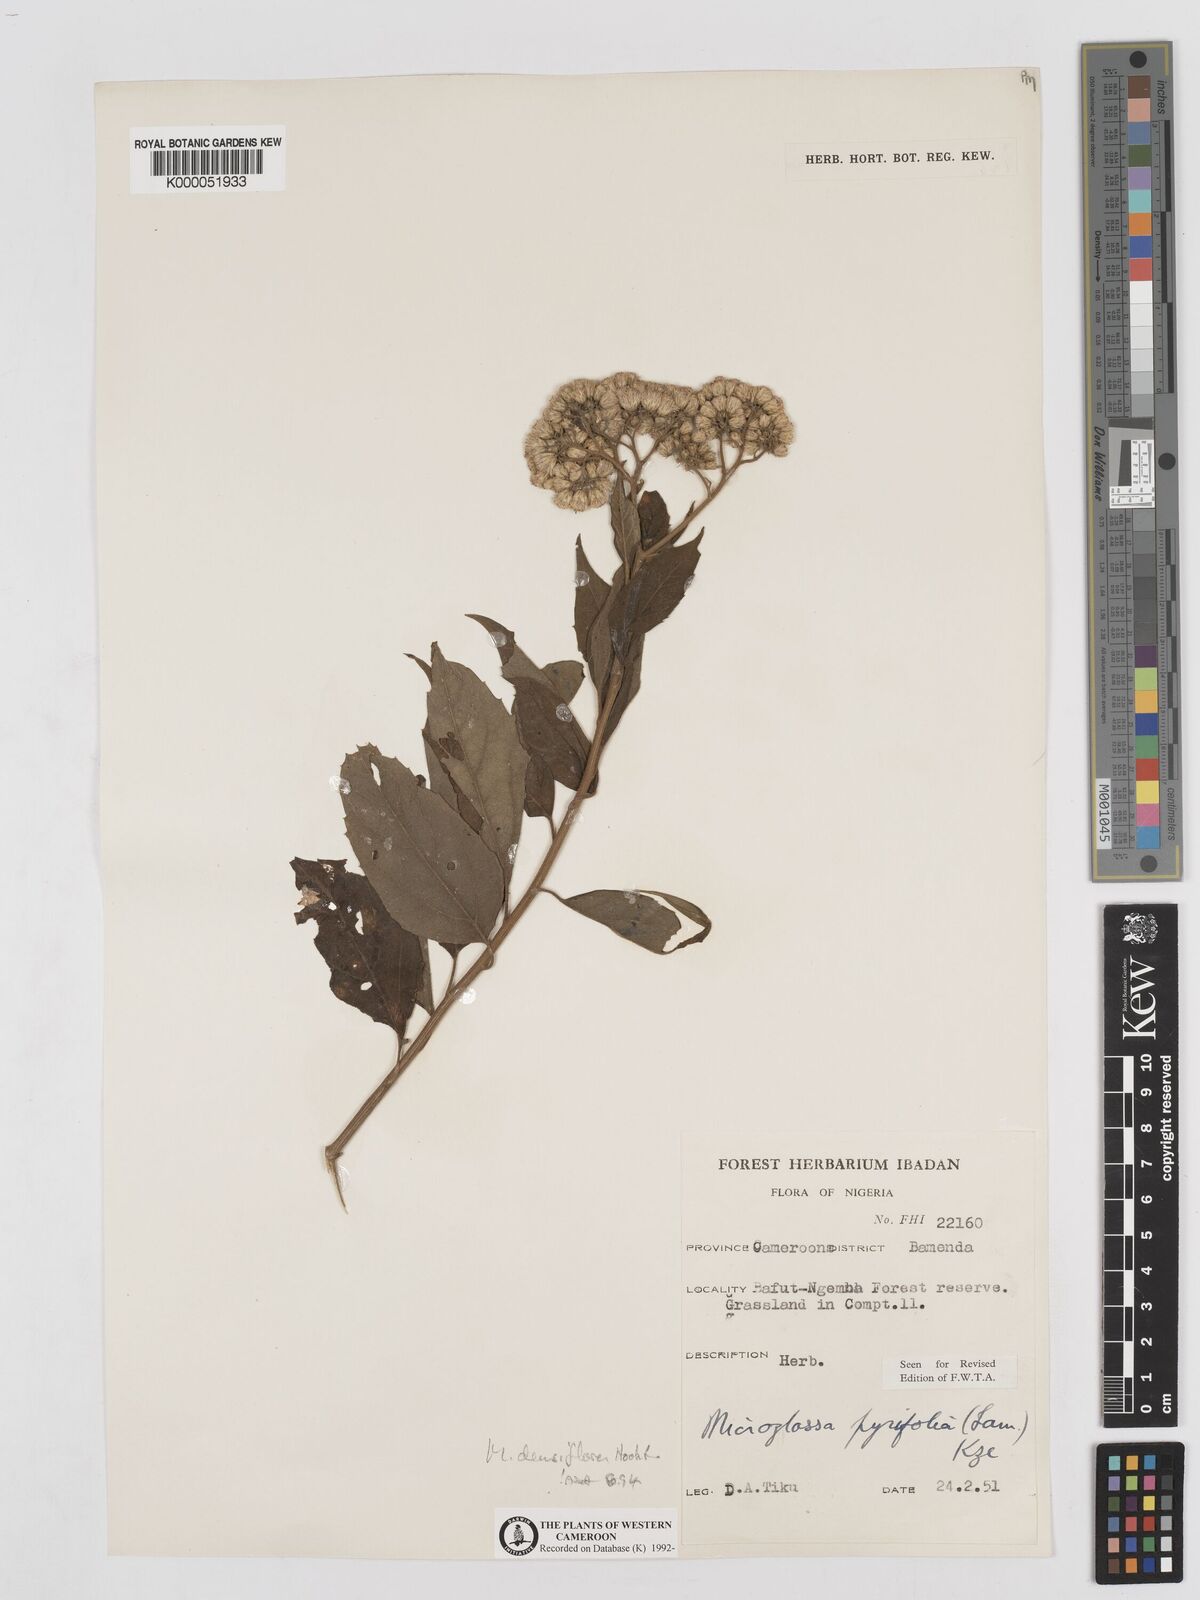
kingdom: Plantae
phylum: Tracheophyta
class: Magnoliopsida
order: Asterales
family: Asteraceae
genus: Microglossa
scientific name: Microglossa densiflora
